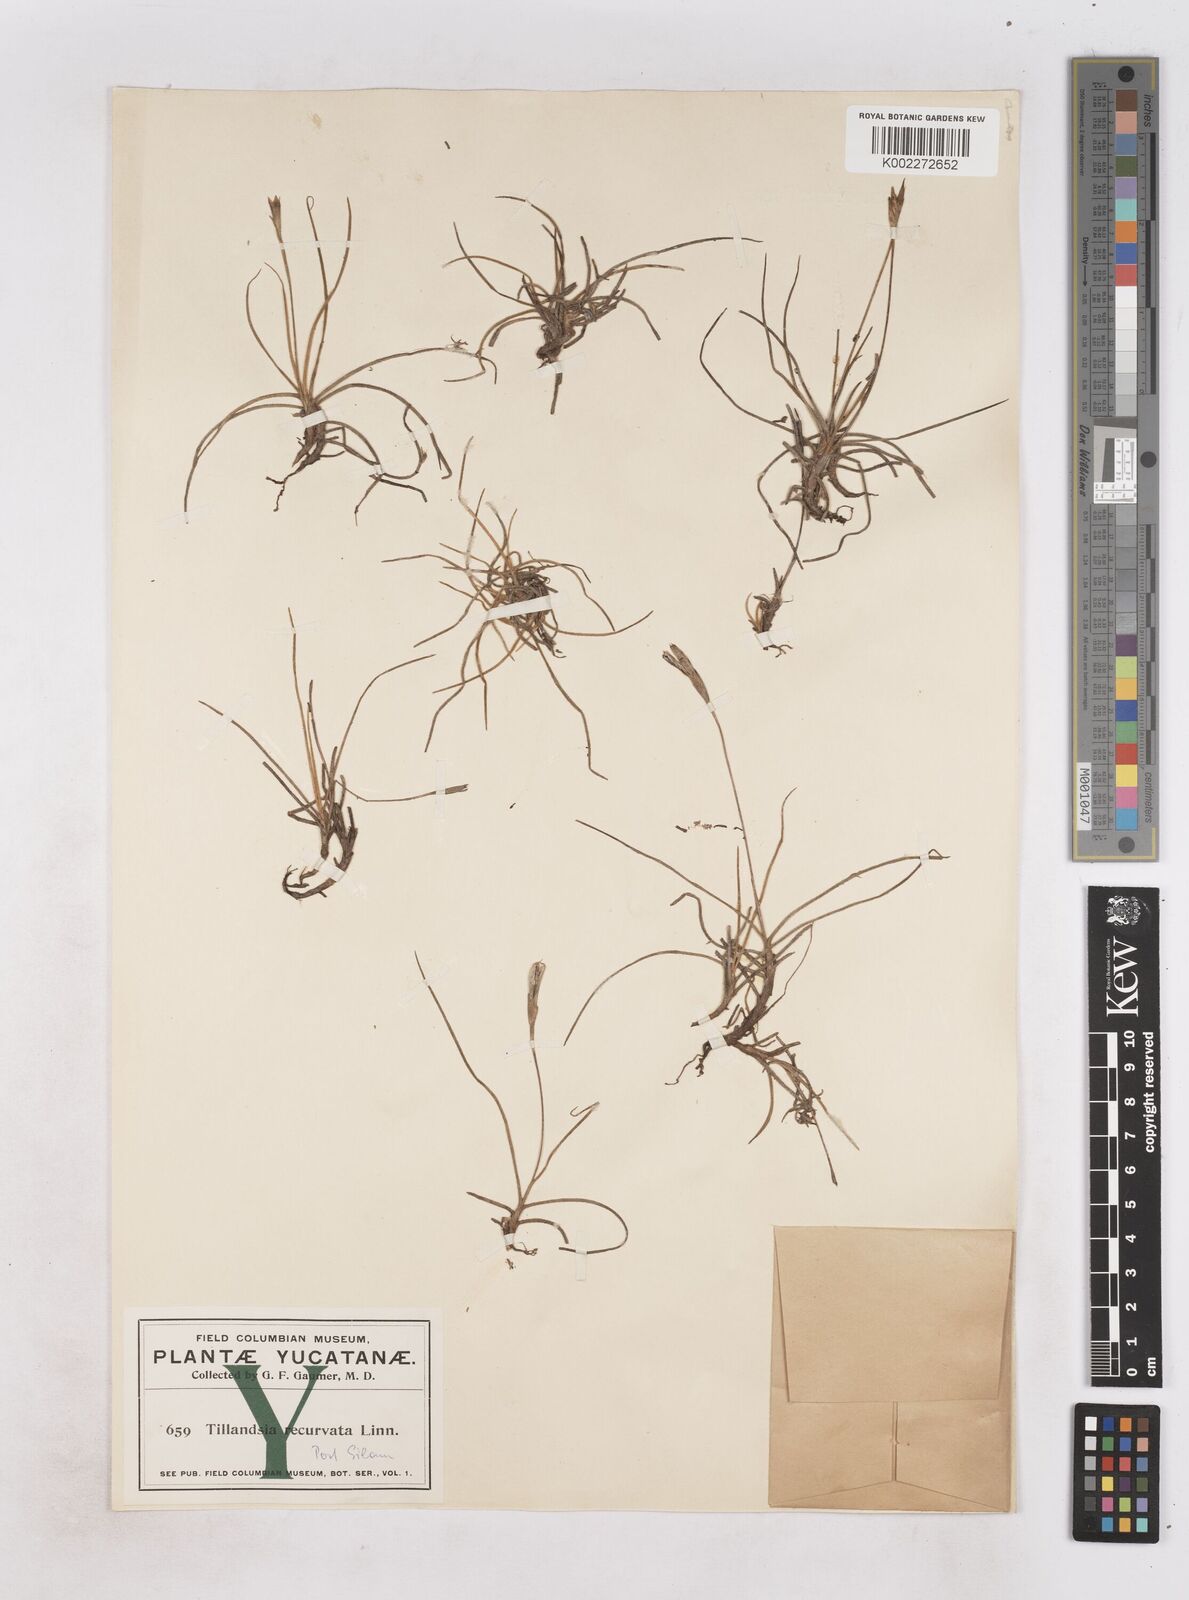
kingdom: Plantae
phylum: Tracheophyta
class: Liliopsida
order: Poales
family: Bromeliaceae
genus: Tillandsia
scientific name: Tillandsia recurvata
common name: Small ballmoss
